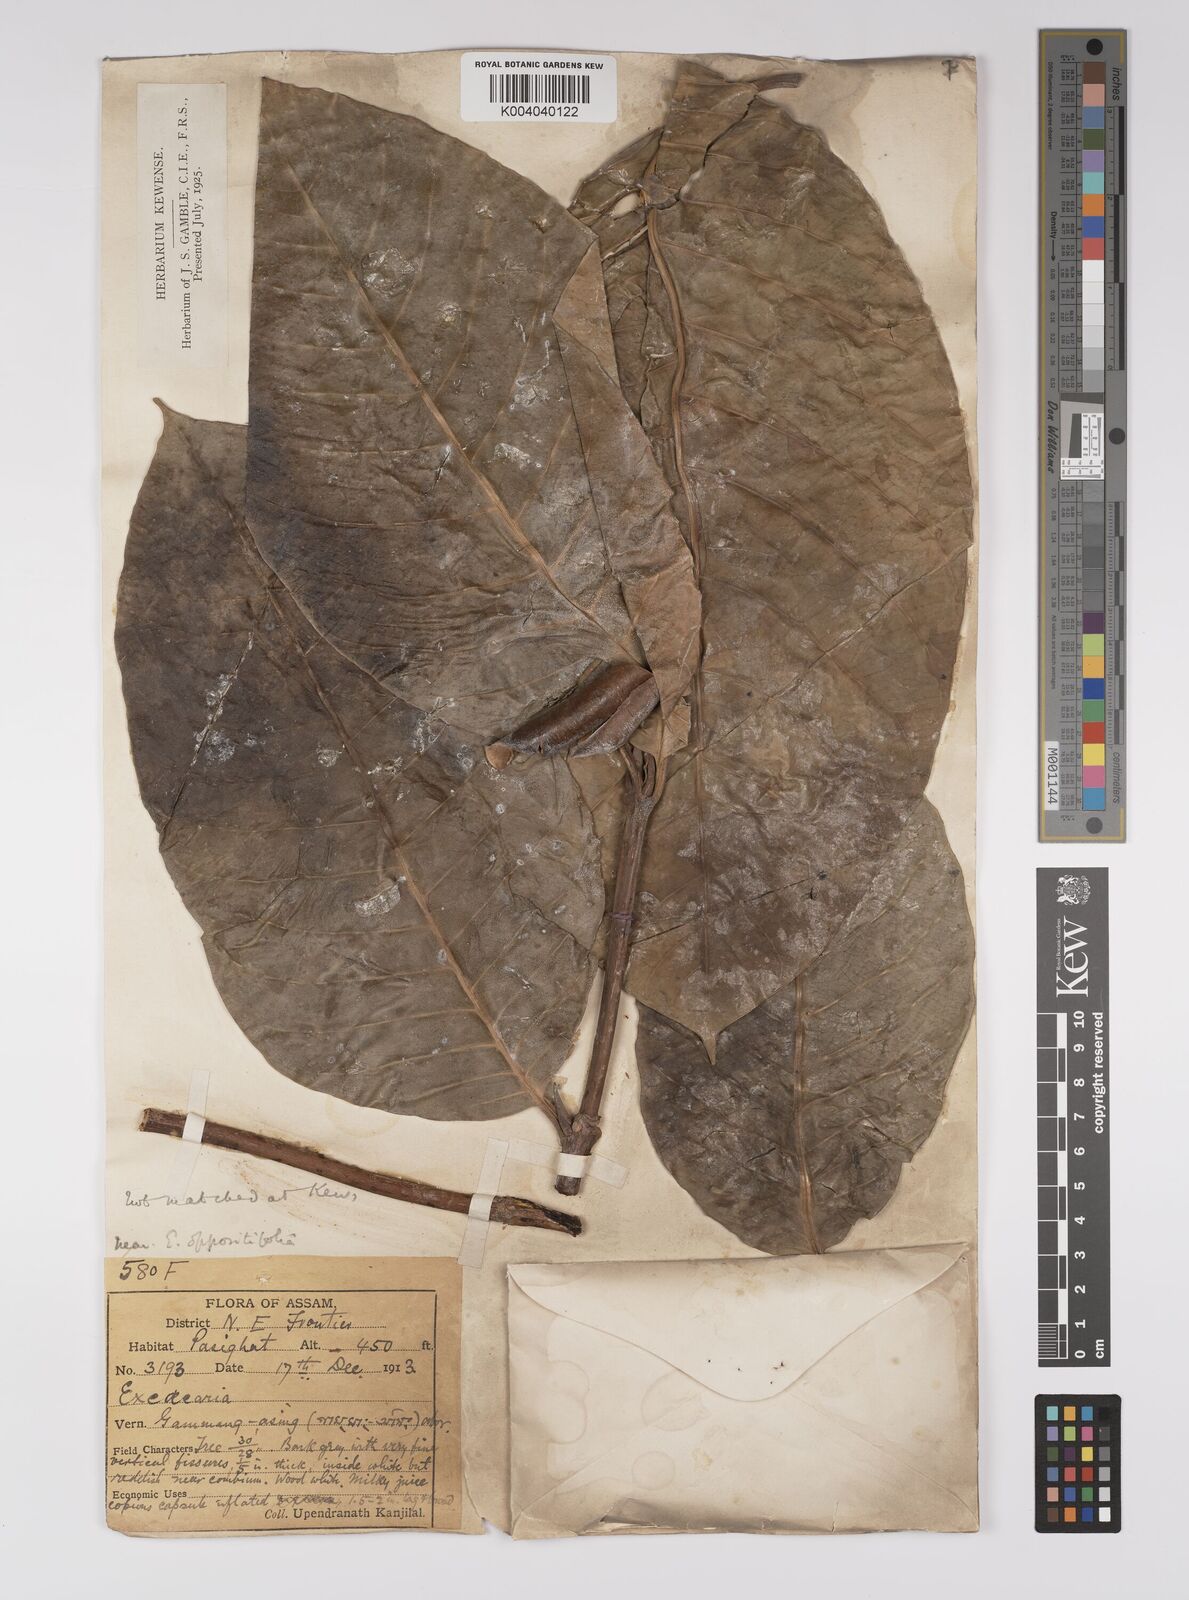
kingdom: Plantae
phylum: Tracheophyta
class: Magnoliopsida
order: Malpighiales
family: Euphorbiaceae
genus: Excoecaria
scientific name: Excoecaria oppositifolia
